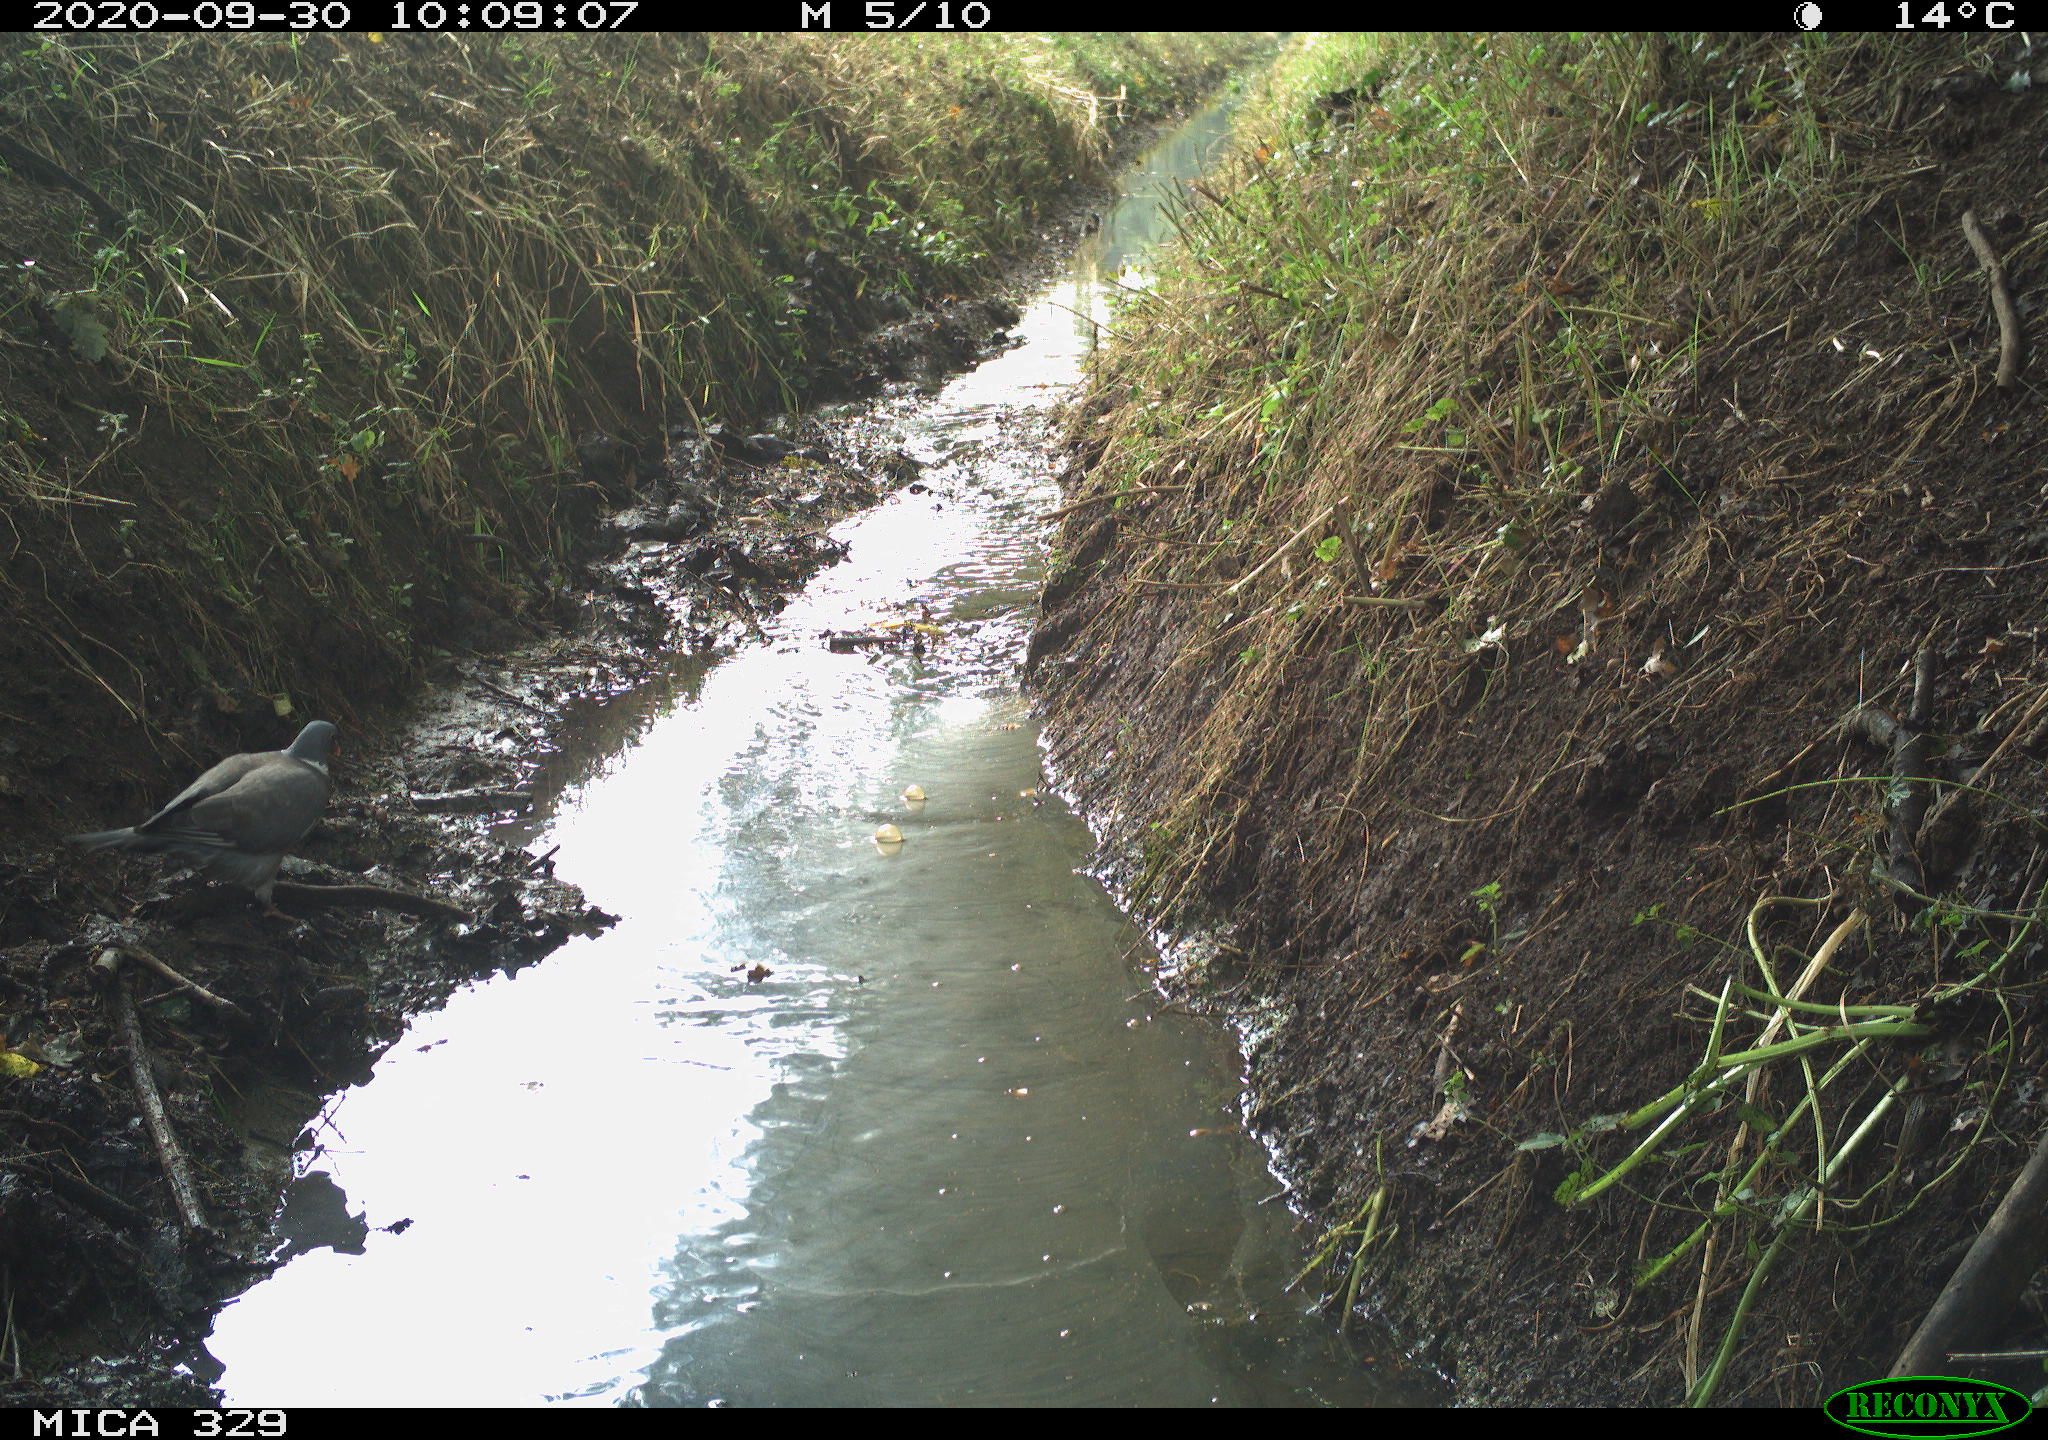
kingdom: Animalia
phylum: Chordata
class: Aves
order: Columbiformes
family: Columbidae
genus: Columba
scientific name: Columba palumbus
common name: Common wood pigeon
